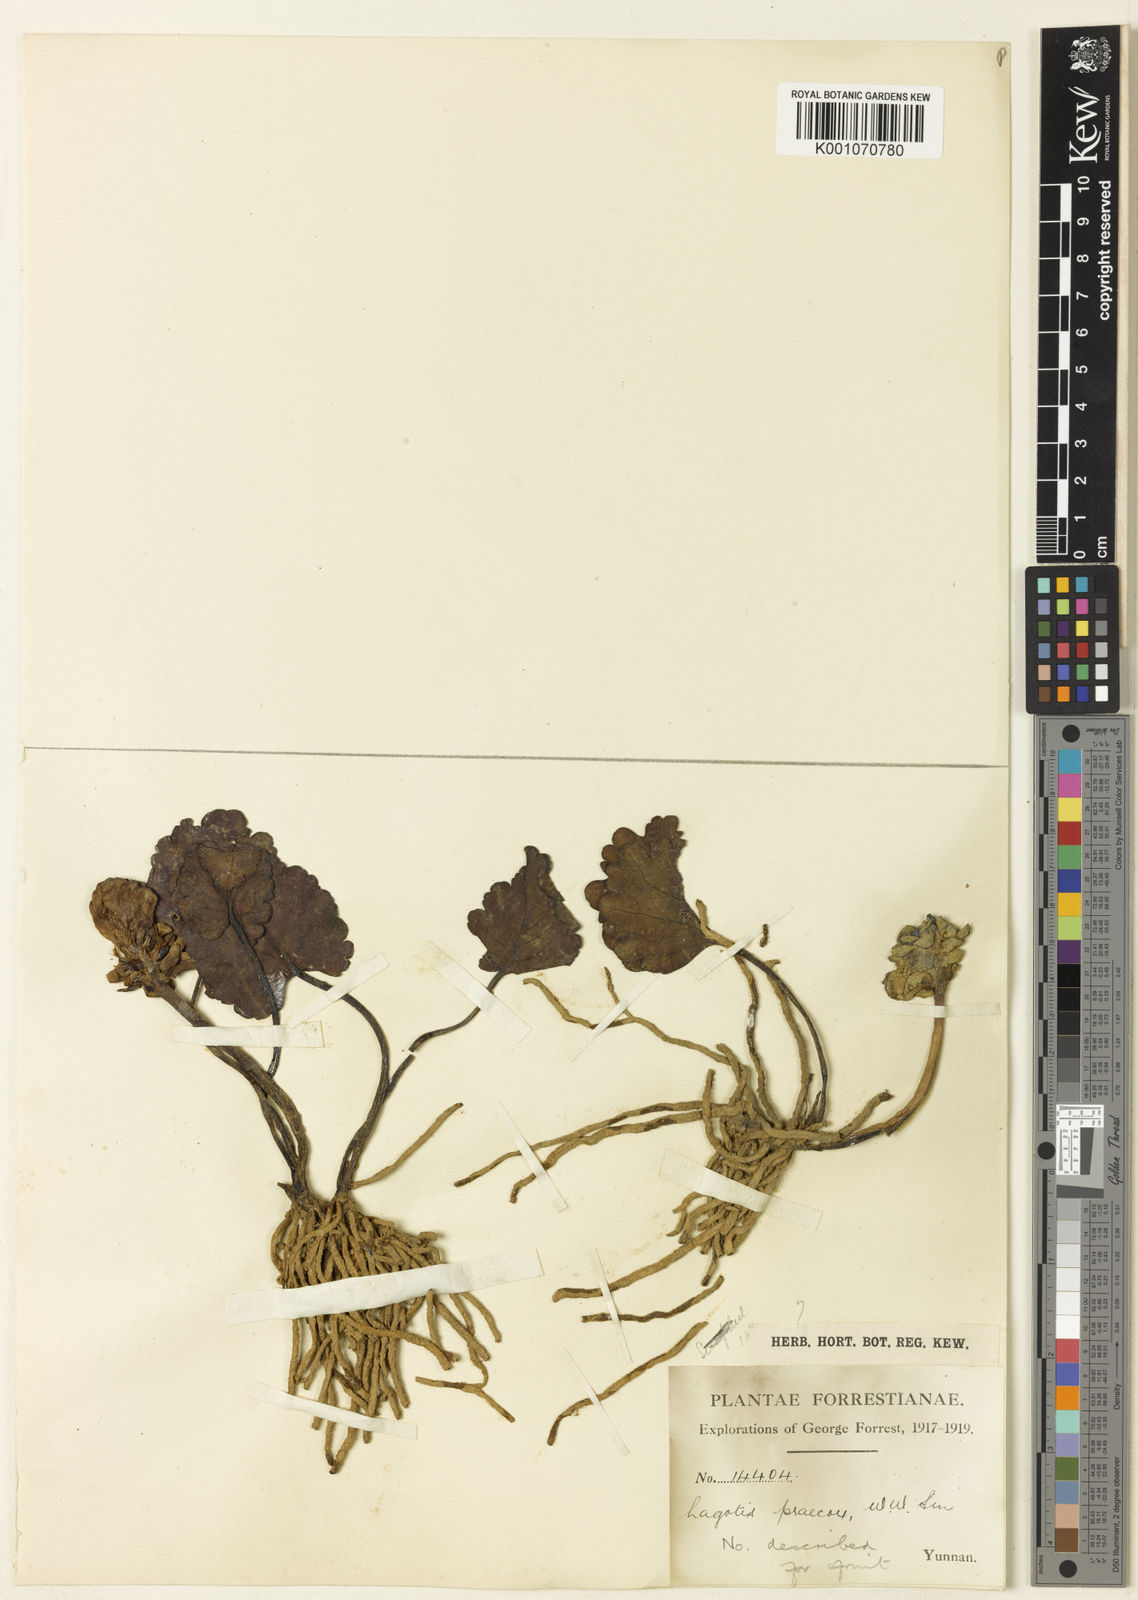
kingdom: Plantae
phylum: Tracheophyta
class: Magnoliopsida
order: Lamiales
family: Plantaginaceae
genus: Lagotis
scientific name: Lagotis praecox
